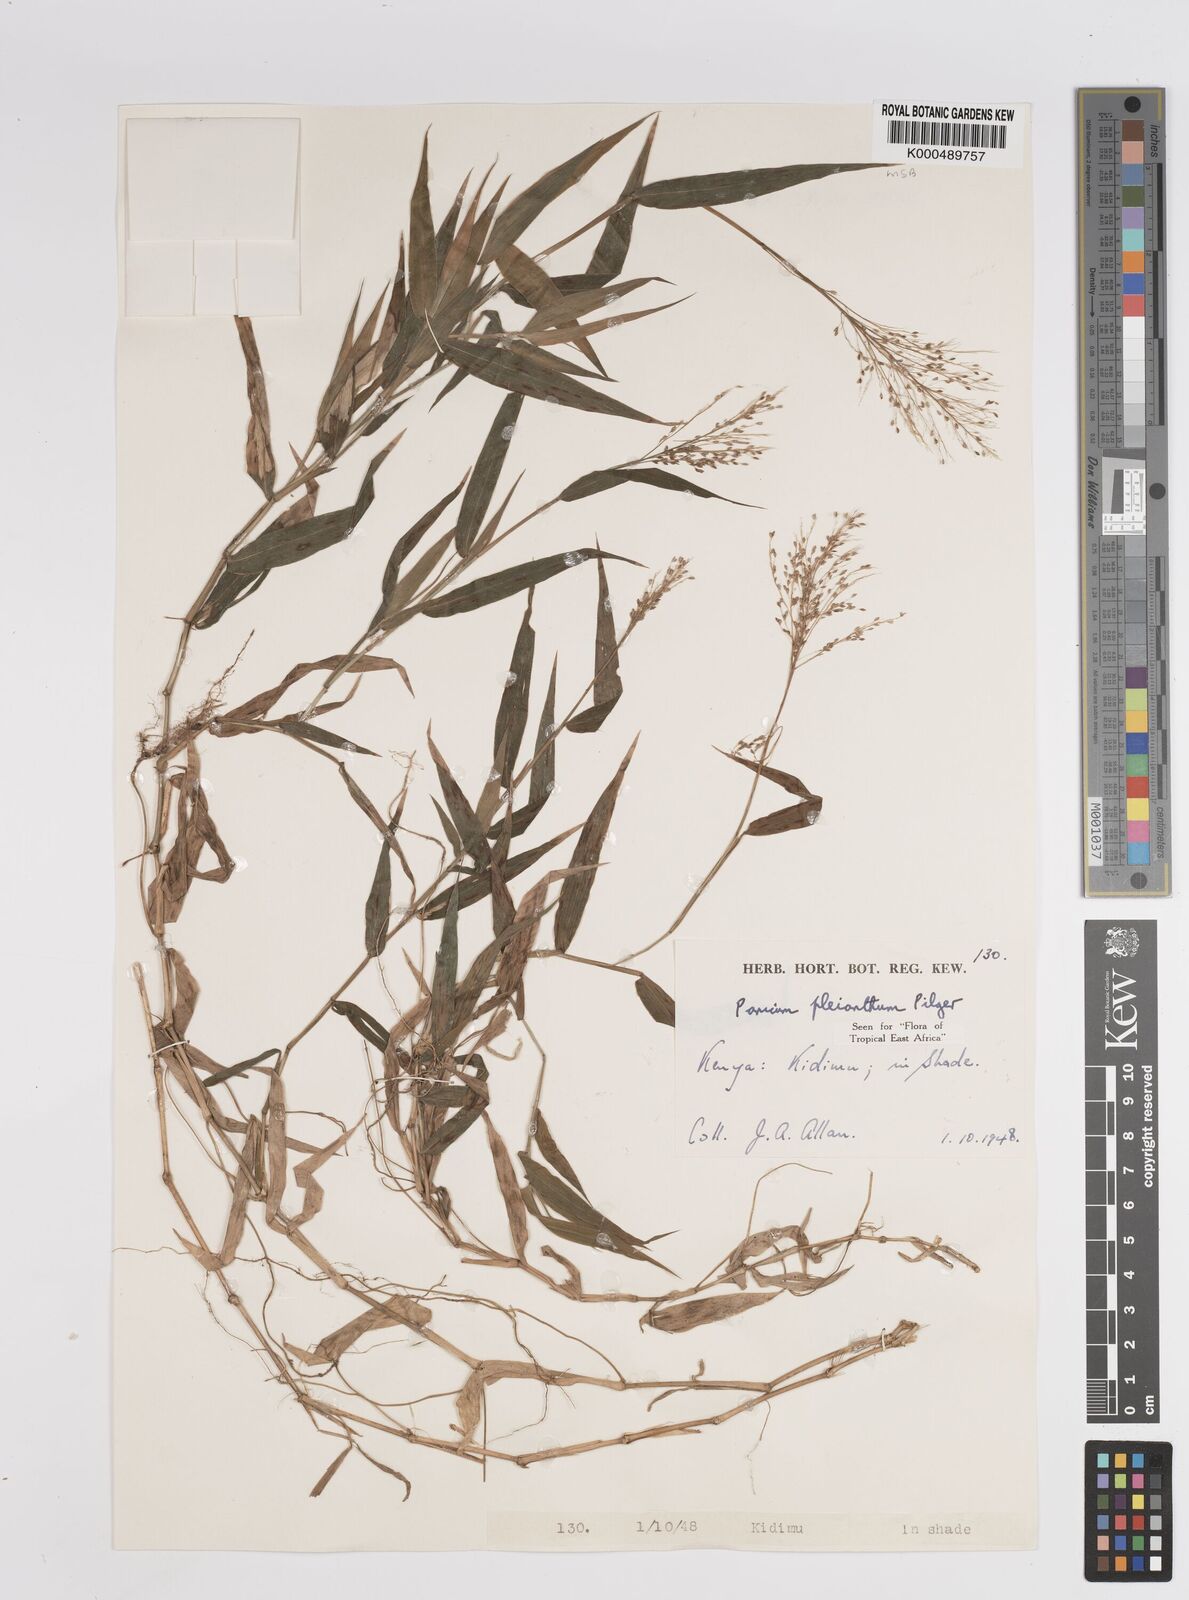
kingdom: Plantae
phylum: Tracheophyta
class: Liliopsida
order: Poales
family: Poaceae
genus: Panicum
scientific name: Panicum pleianthum
